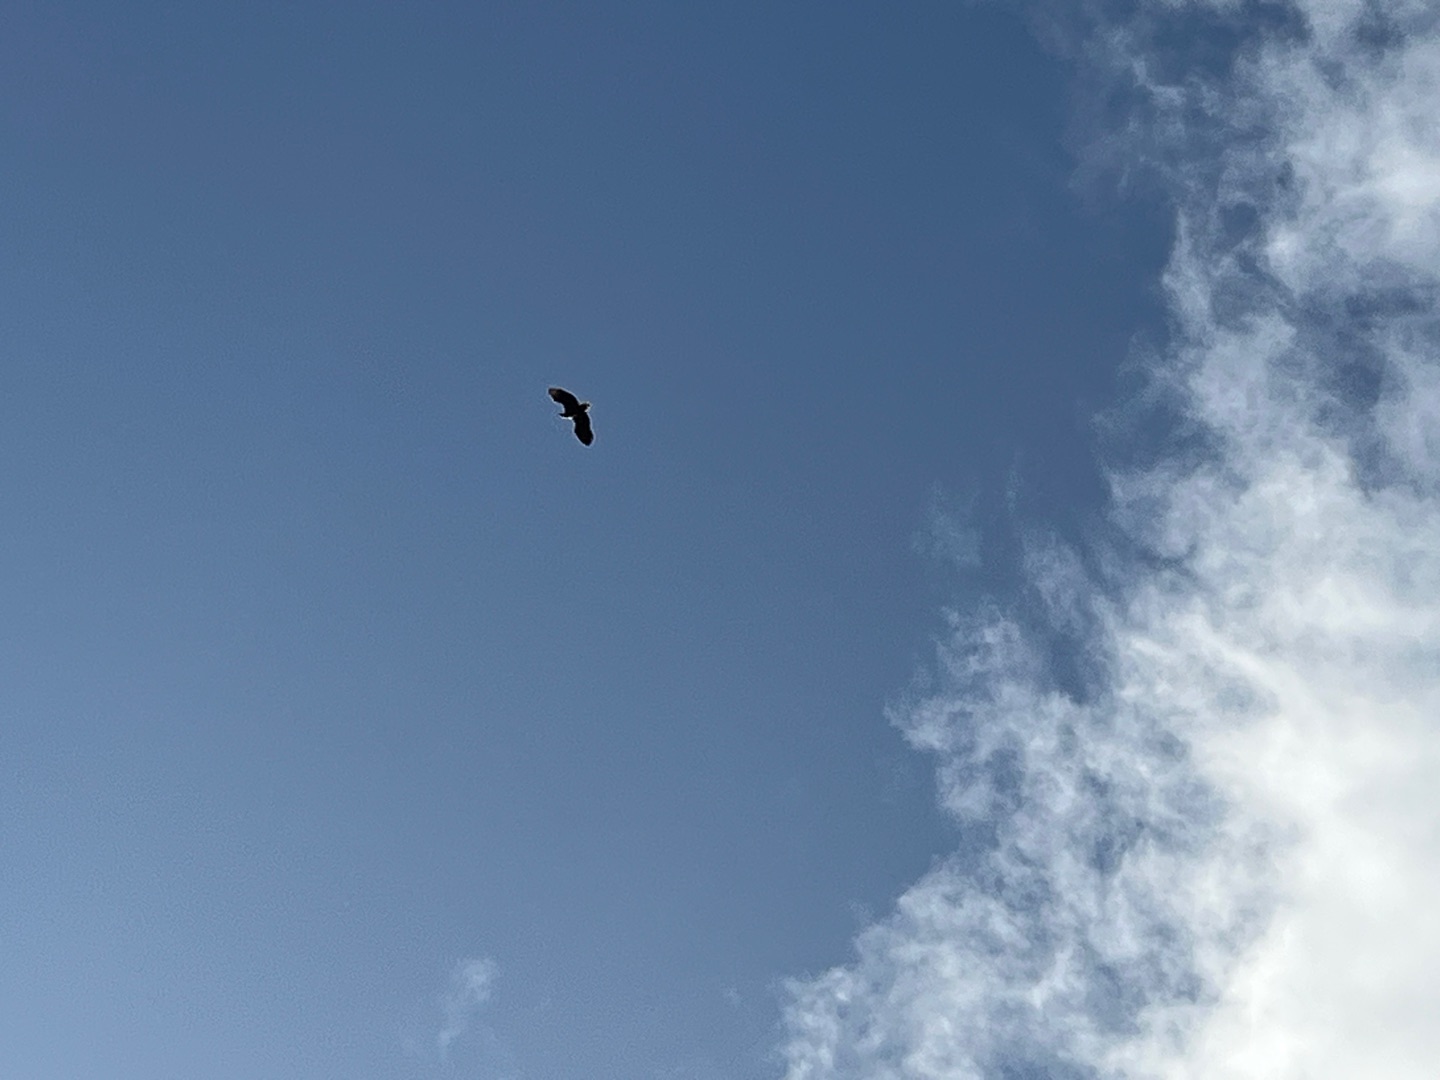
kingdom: Animalia
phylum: Chordata
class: Aves
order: Accipitriformes
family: Accipitridae
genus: Haliaeetus
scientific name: Haliaeetus albicilla
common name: Havørn
